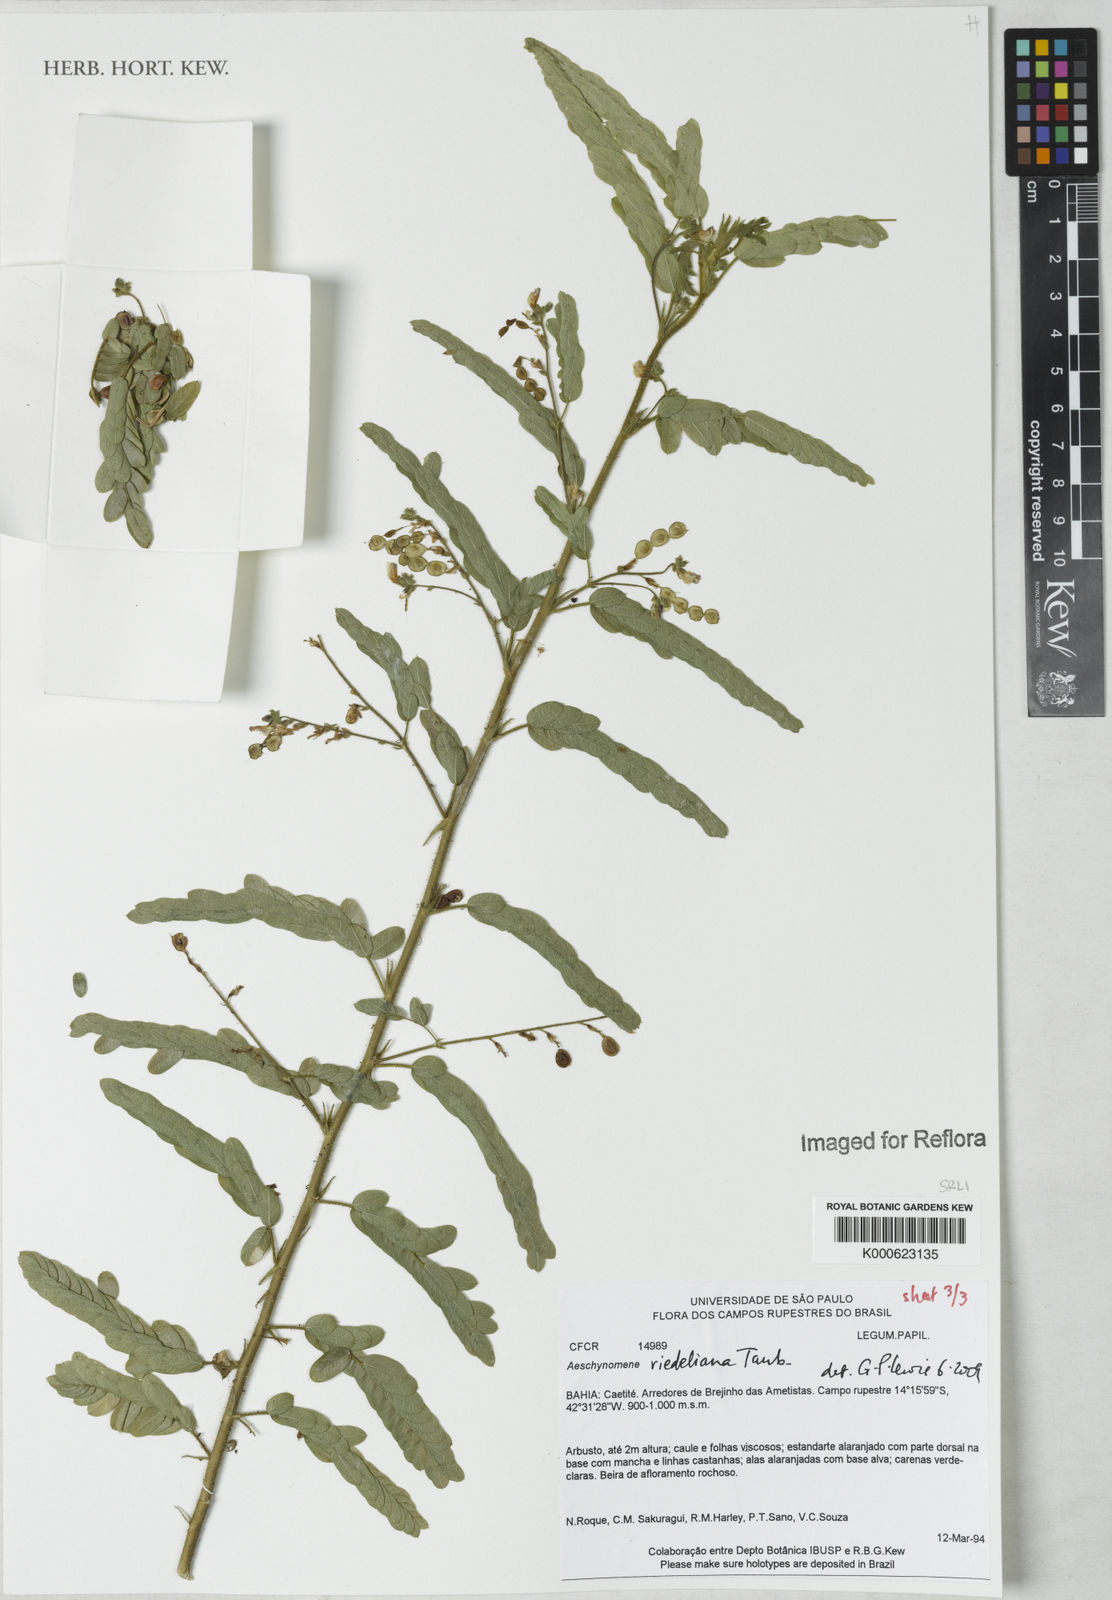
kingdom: Plantae
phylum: Tracheophyta
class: Magnoliopsida
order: Fabales
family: Fabaceae
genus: Ctenodon
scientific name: Ctenodon riedelianus
